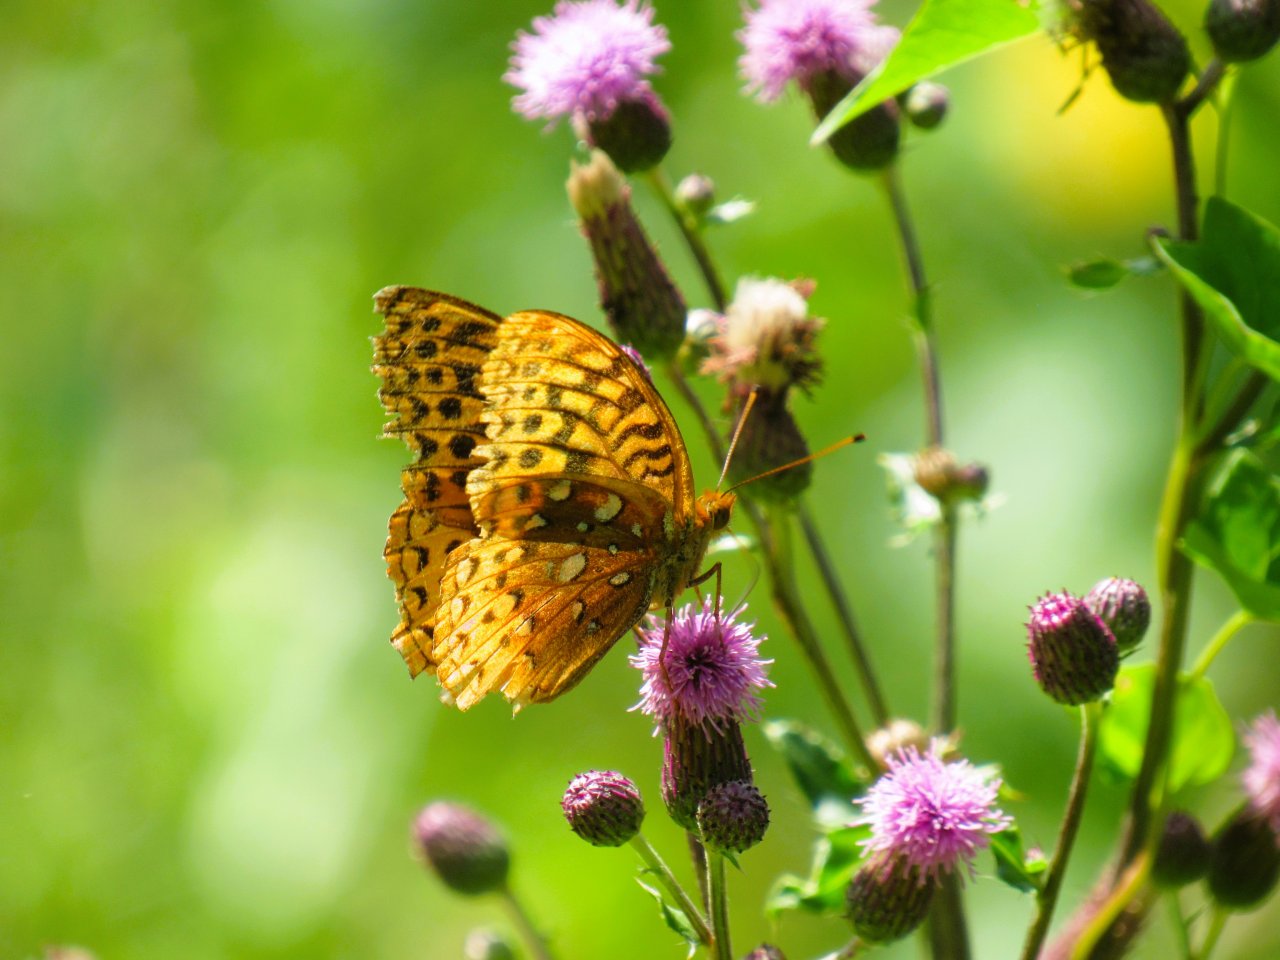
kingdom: Animalia
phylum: Arthropoda
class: Insecta
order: Lepidoptera
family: Nymphalidae
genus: Speyeria
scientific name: Speyeria cybele
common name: Great Spangled Fritillary
